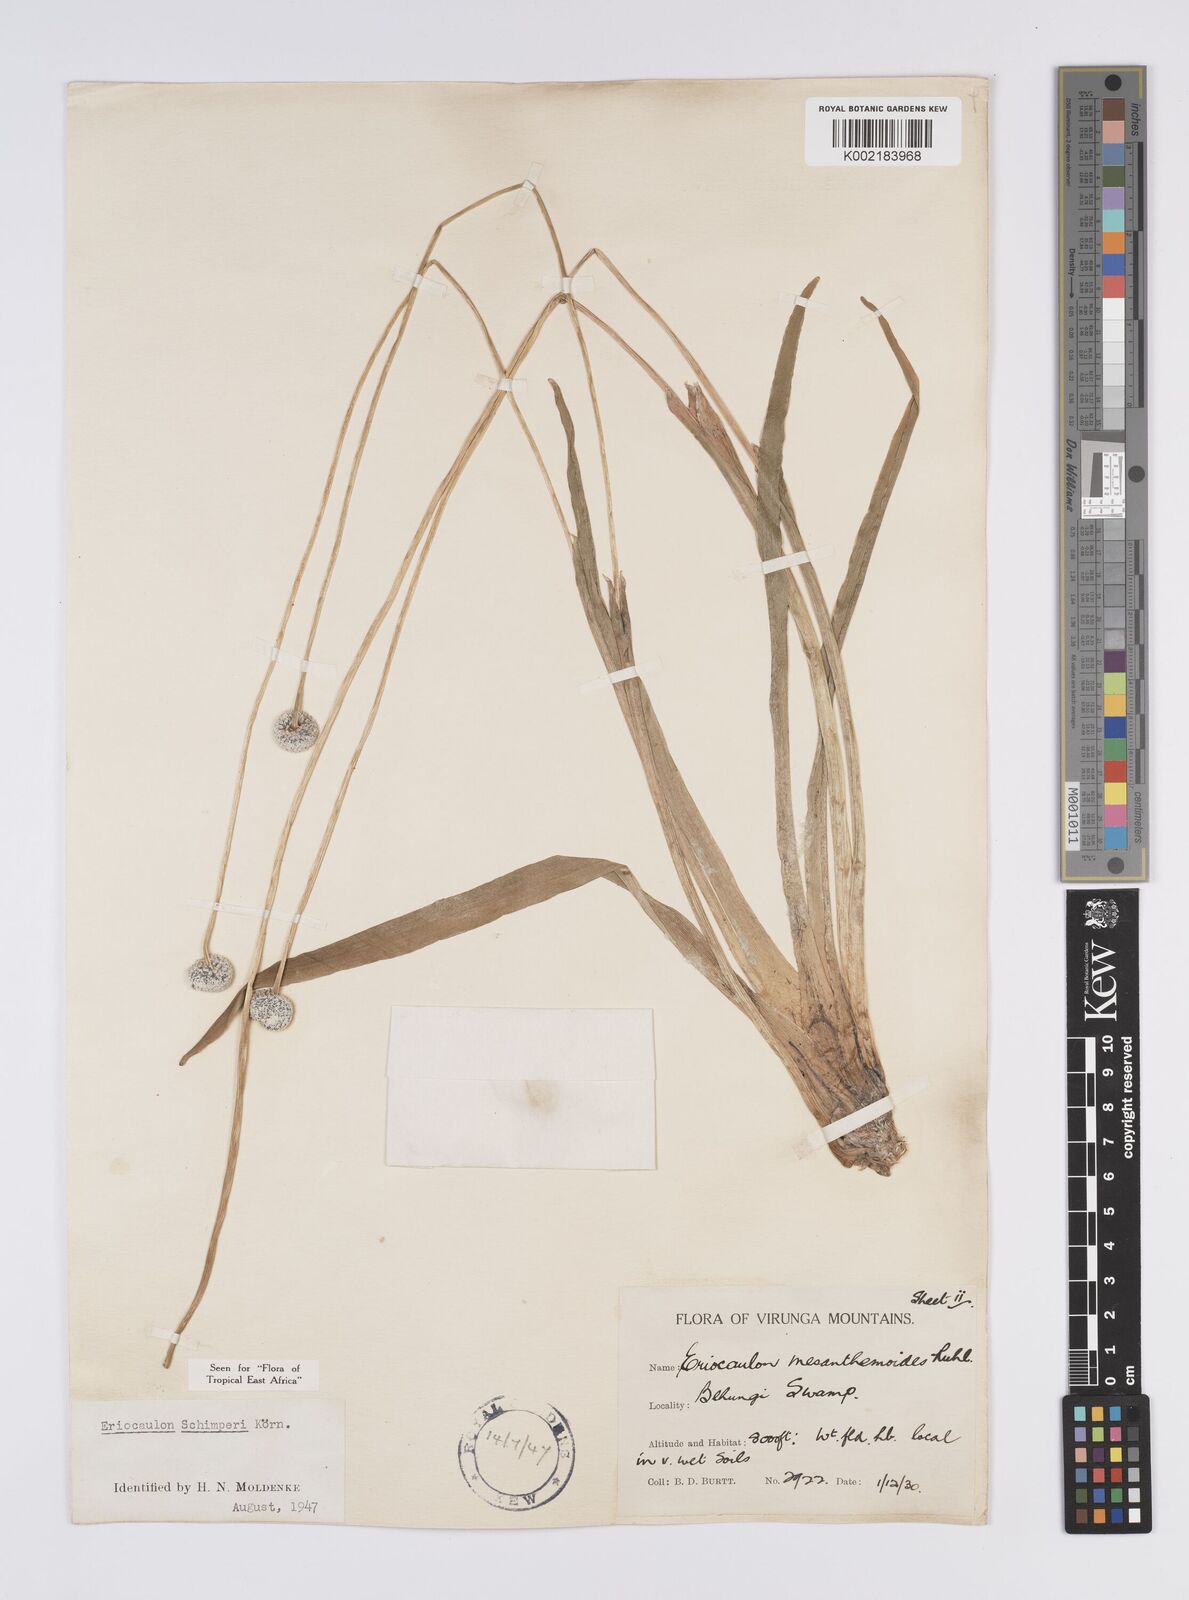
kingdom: Plantae
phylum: Tracheophyta
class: Liliopsida
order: Poales
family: Eriocaulaceae
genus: Eriocaulon
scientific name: Eriocaulon schimperi
